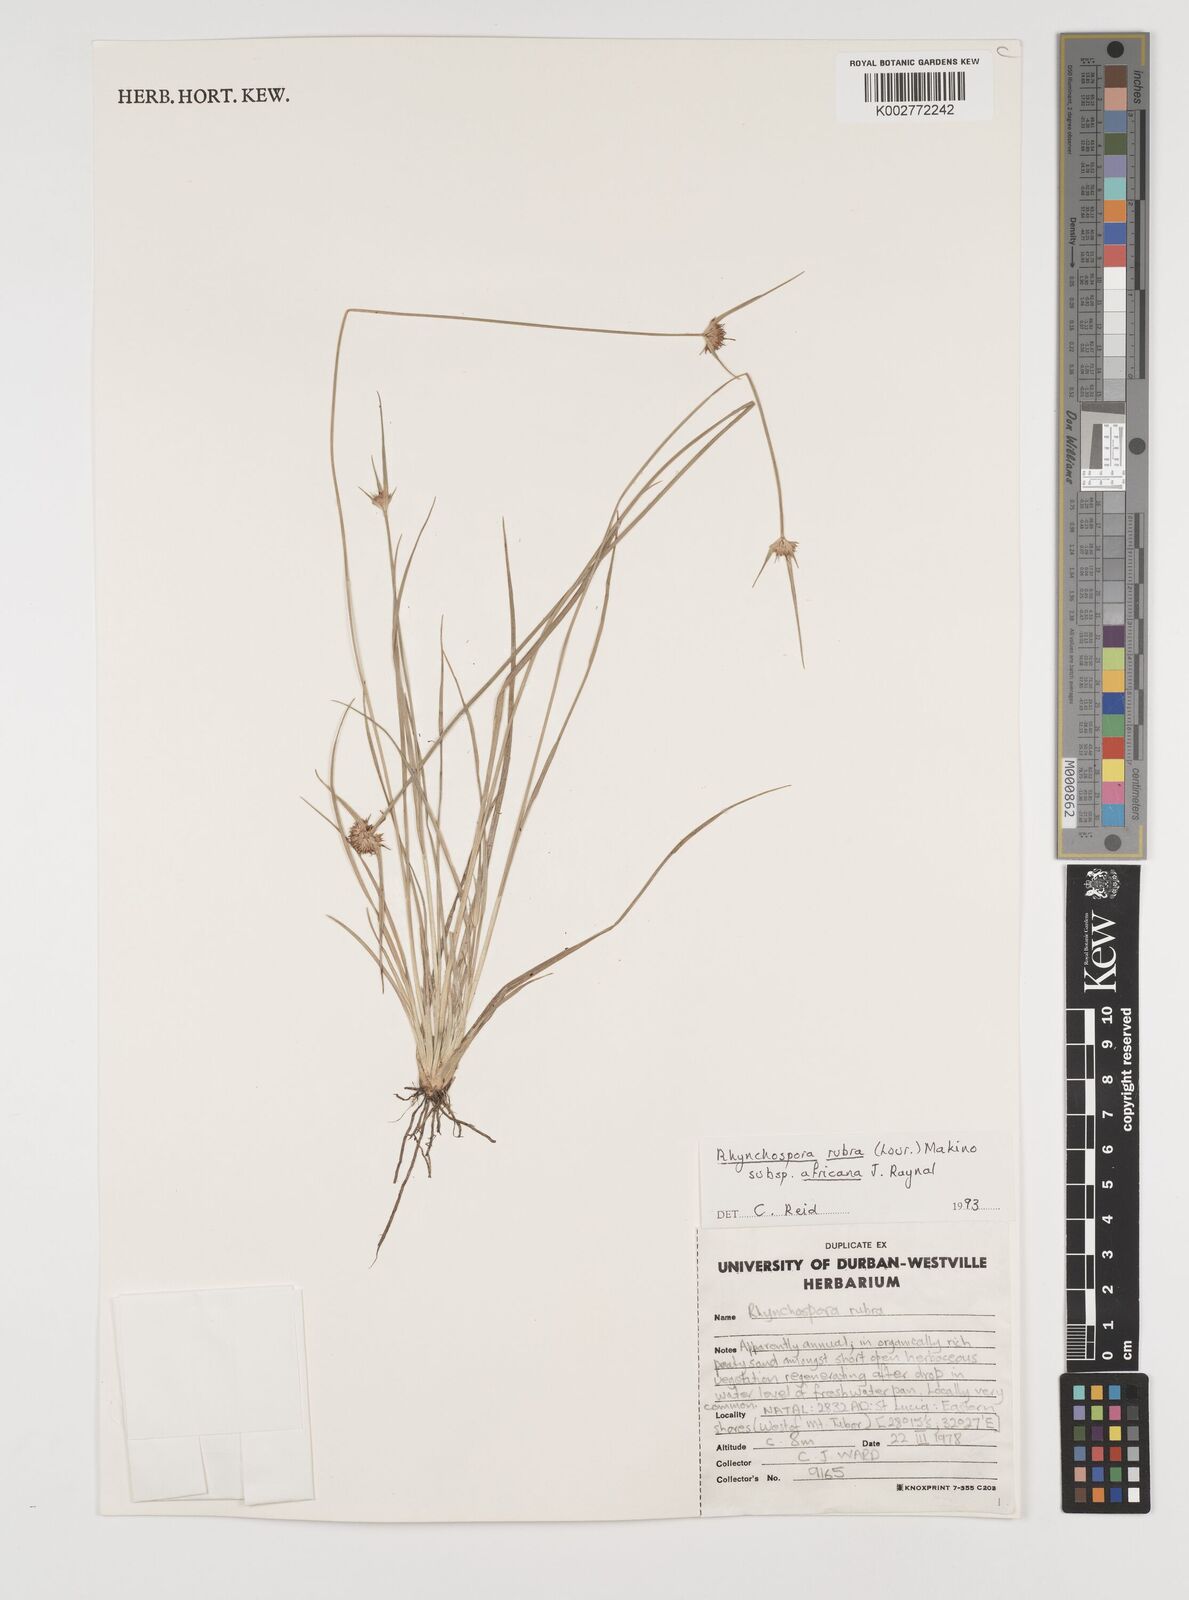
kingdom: Plantae
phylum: Tracheophyta
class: Liliopsida
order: Poales
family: Cyperaceae
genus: Rhynchospora
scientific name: Rhynchospora rubra
